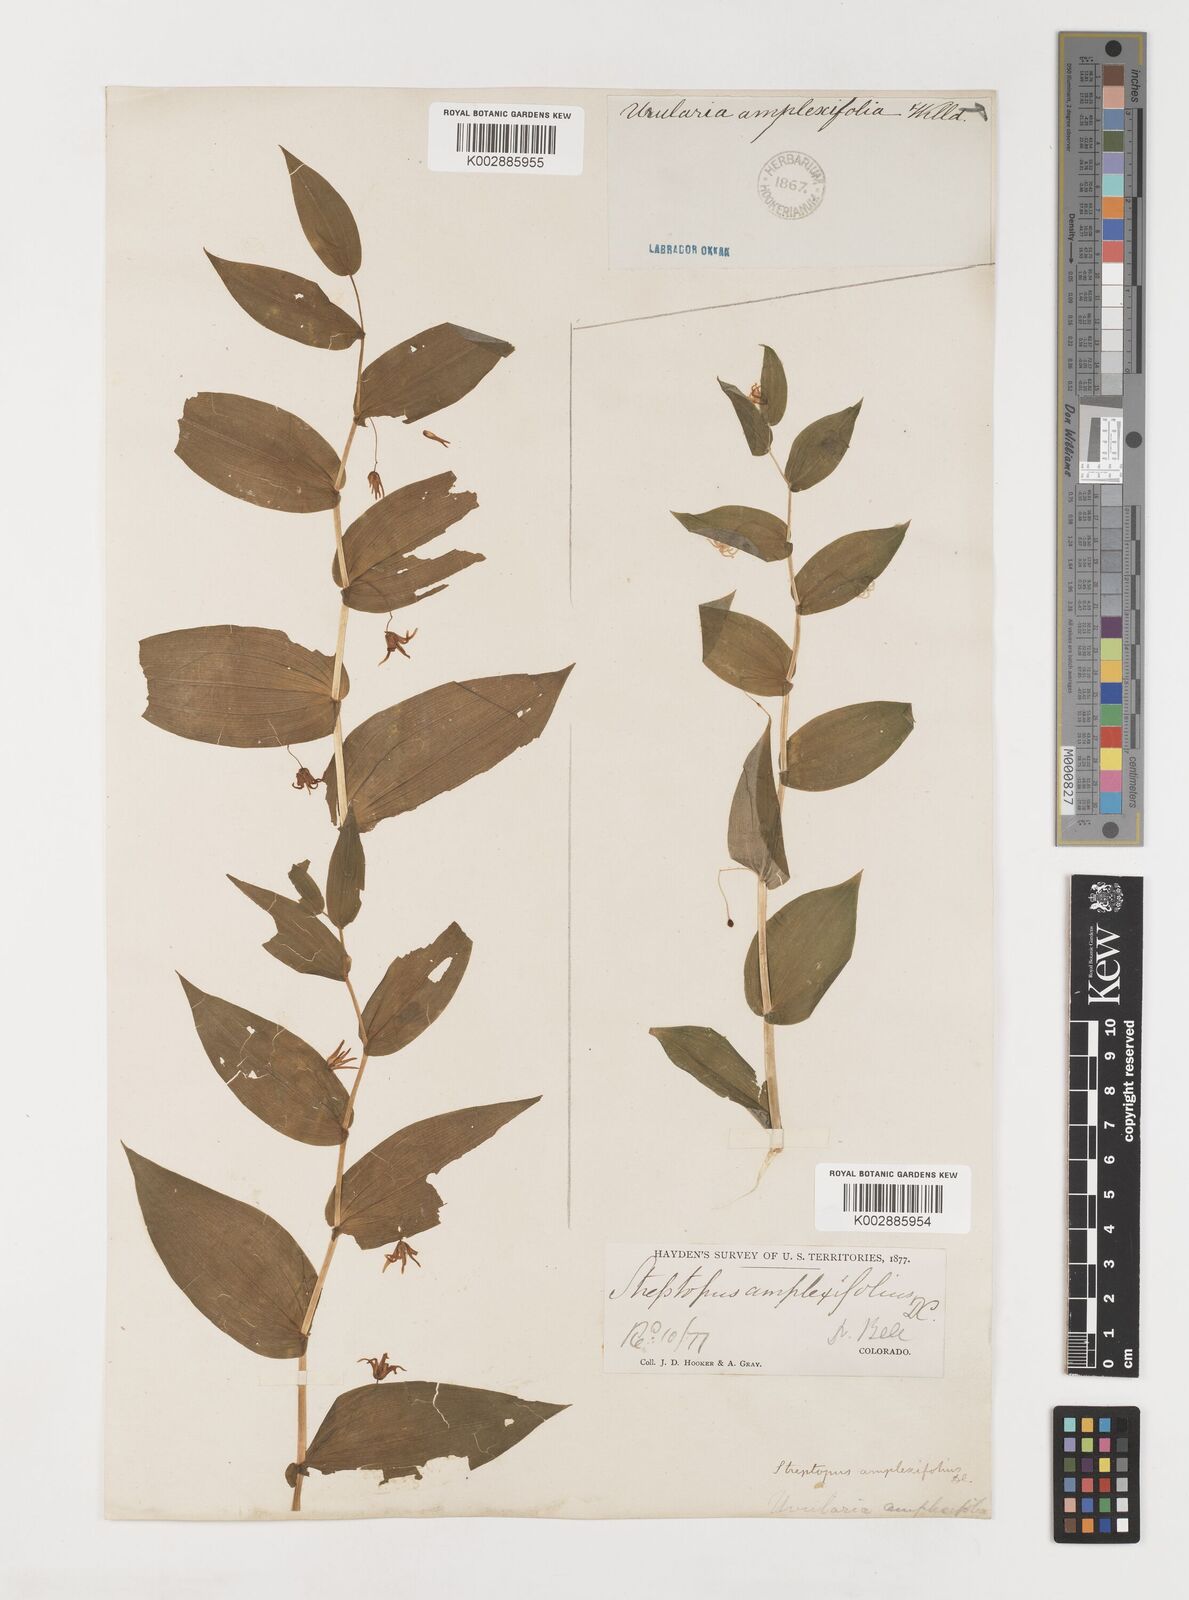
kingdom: Plantae
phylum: Tracheophyta
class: Liliopsida
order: Liliales
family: Liliaceae
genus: Streptopus
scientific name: Streptopus amplexifolius
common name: Clasp twisted stalk
